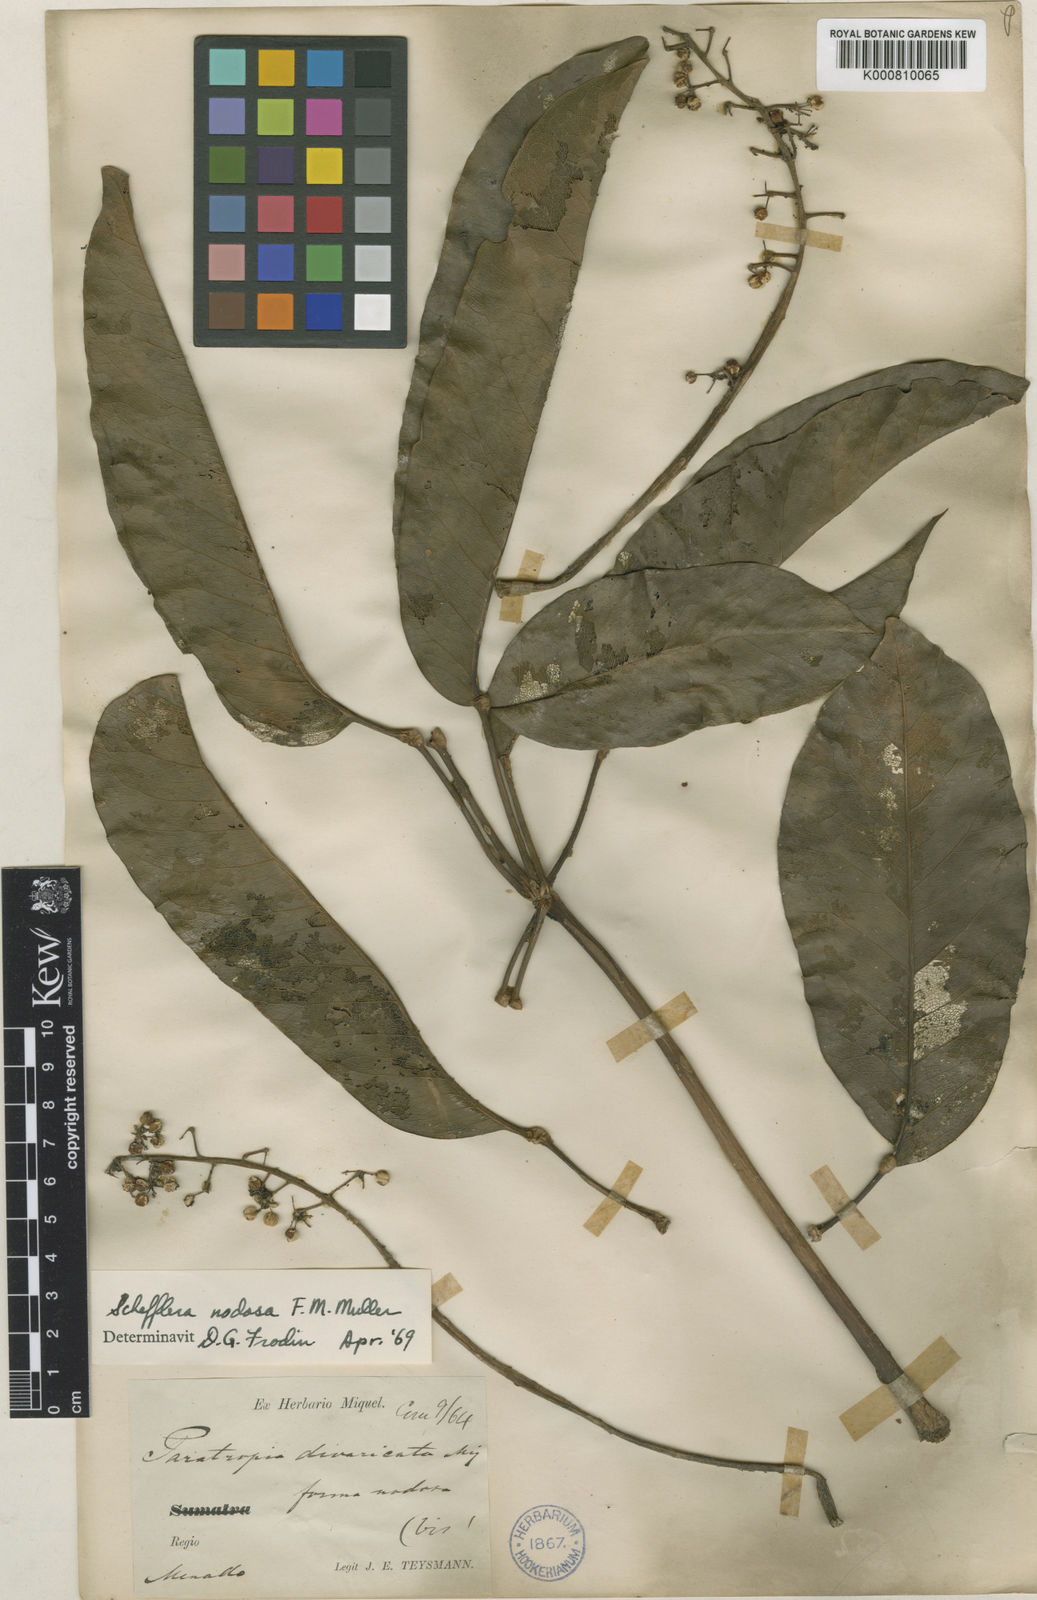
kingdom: Plantae
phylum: Tracheophyta
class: Magnoliopsida
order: Apiales
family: Araliaceae
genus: Heptapleurum
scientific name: Heptapleurum nodosum
